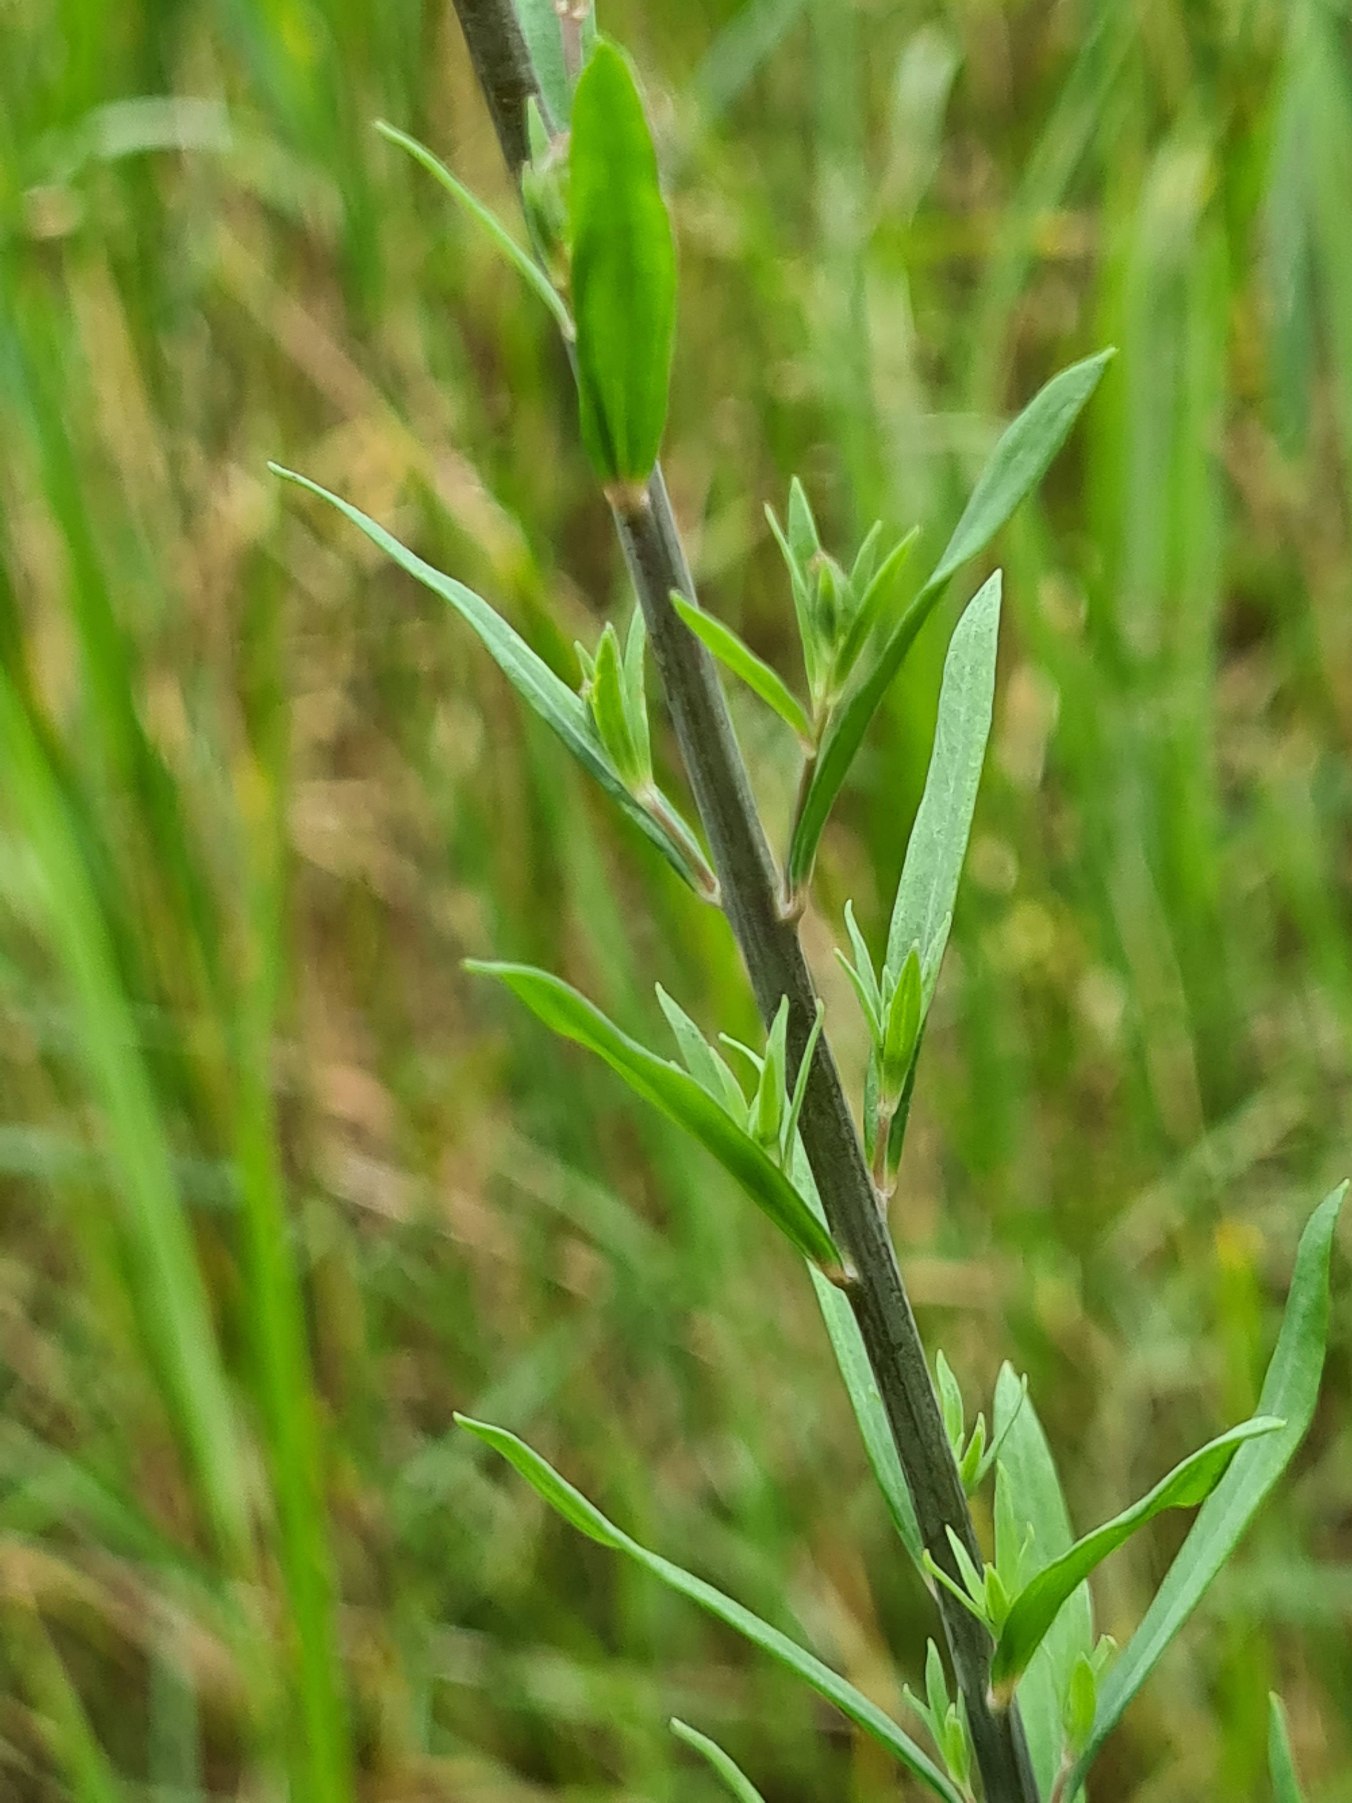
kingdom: Plantae
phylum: Tracheophyta
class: Magnoliopsida
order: Lamiales
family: Plantaginaceae
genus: Linaria
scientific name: Linaria purpurea
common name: Purpur-torskemund
